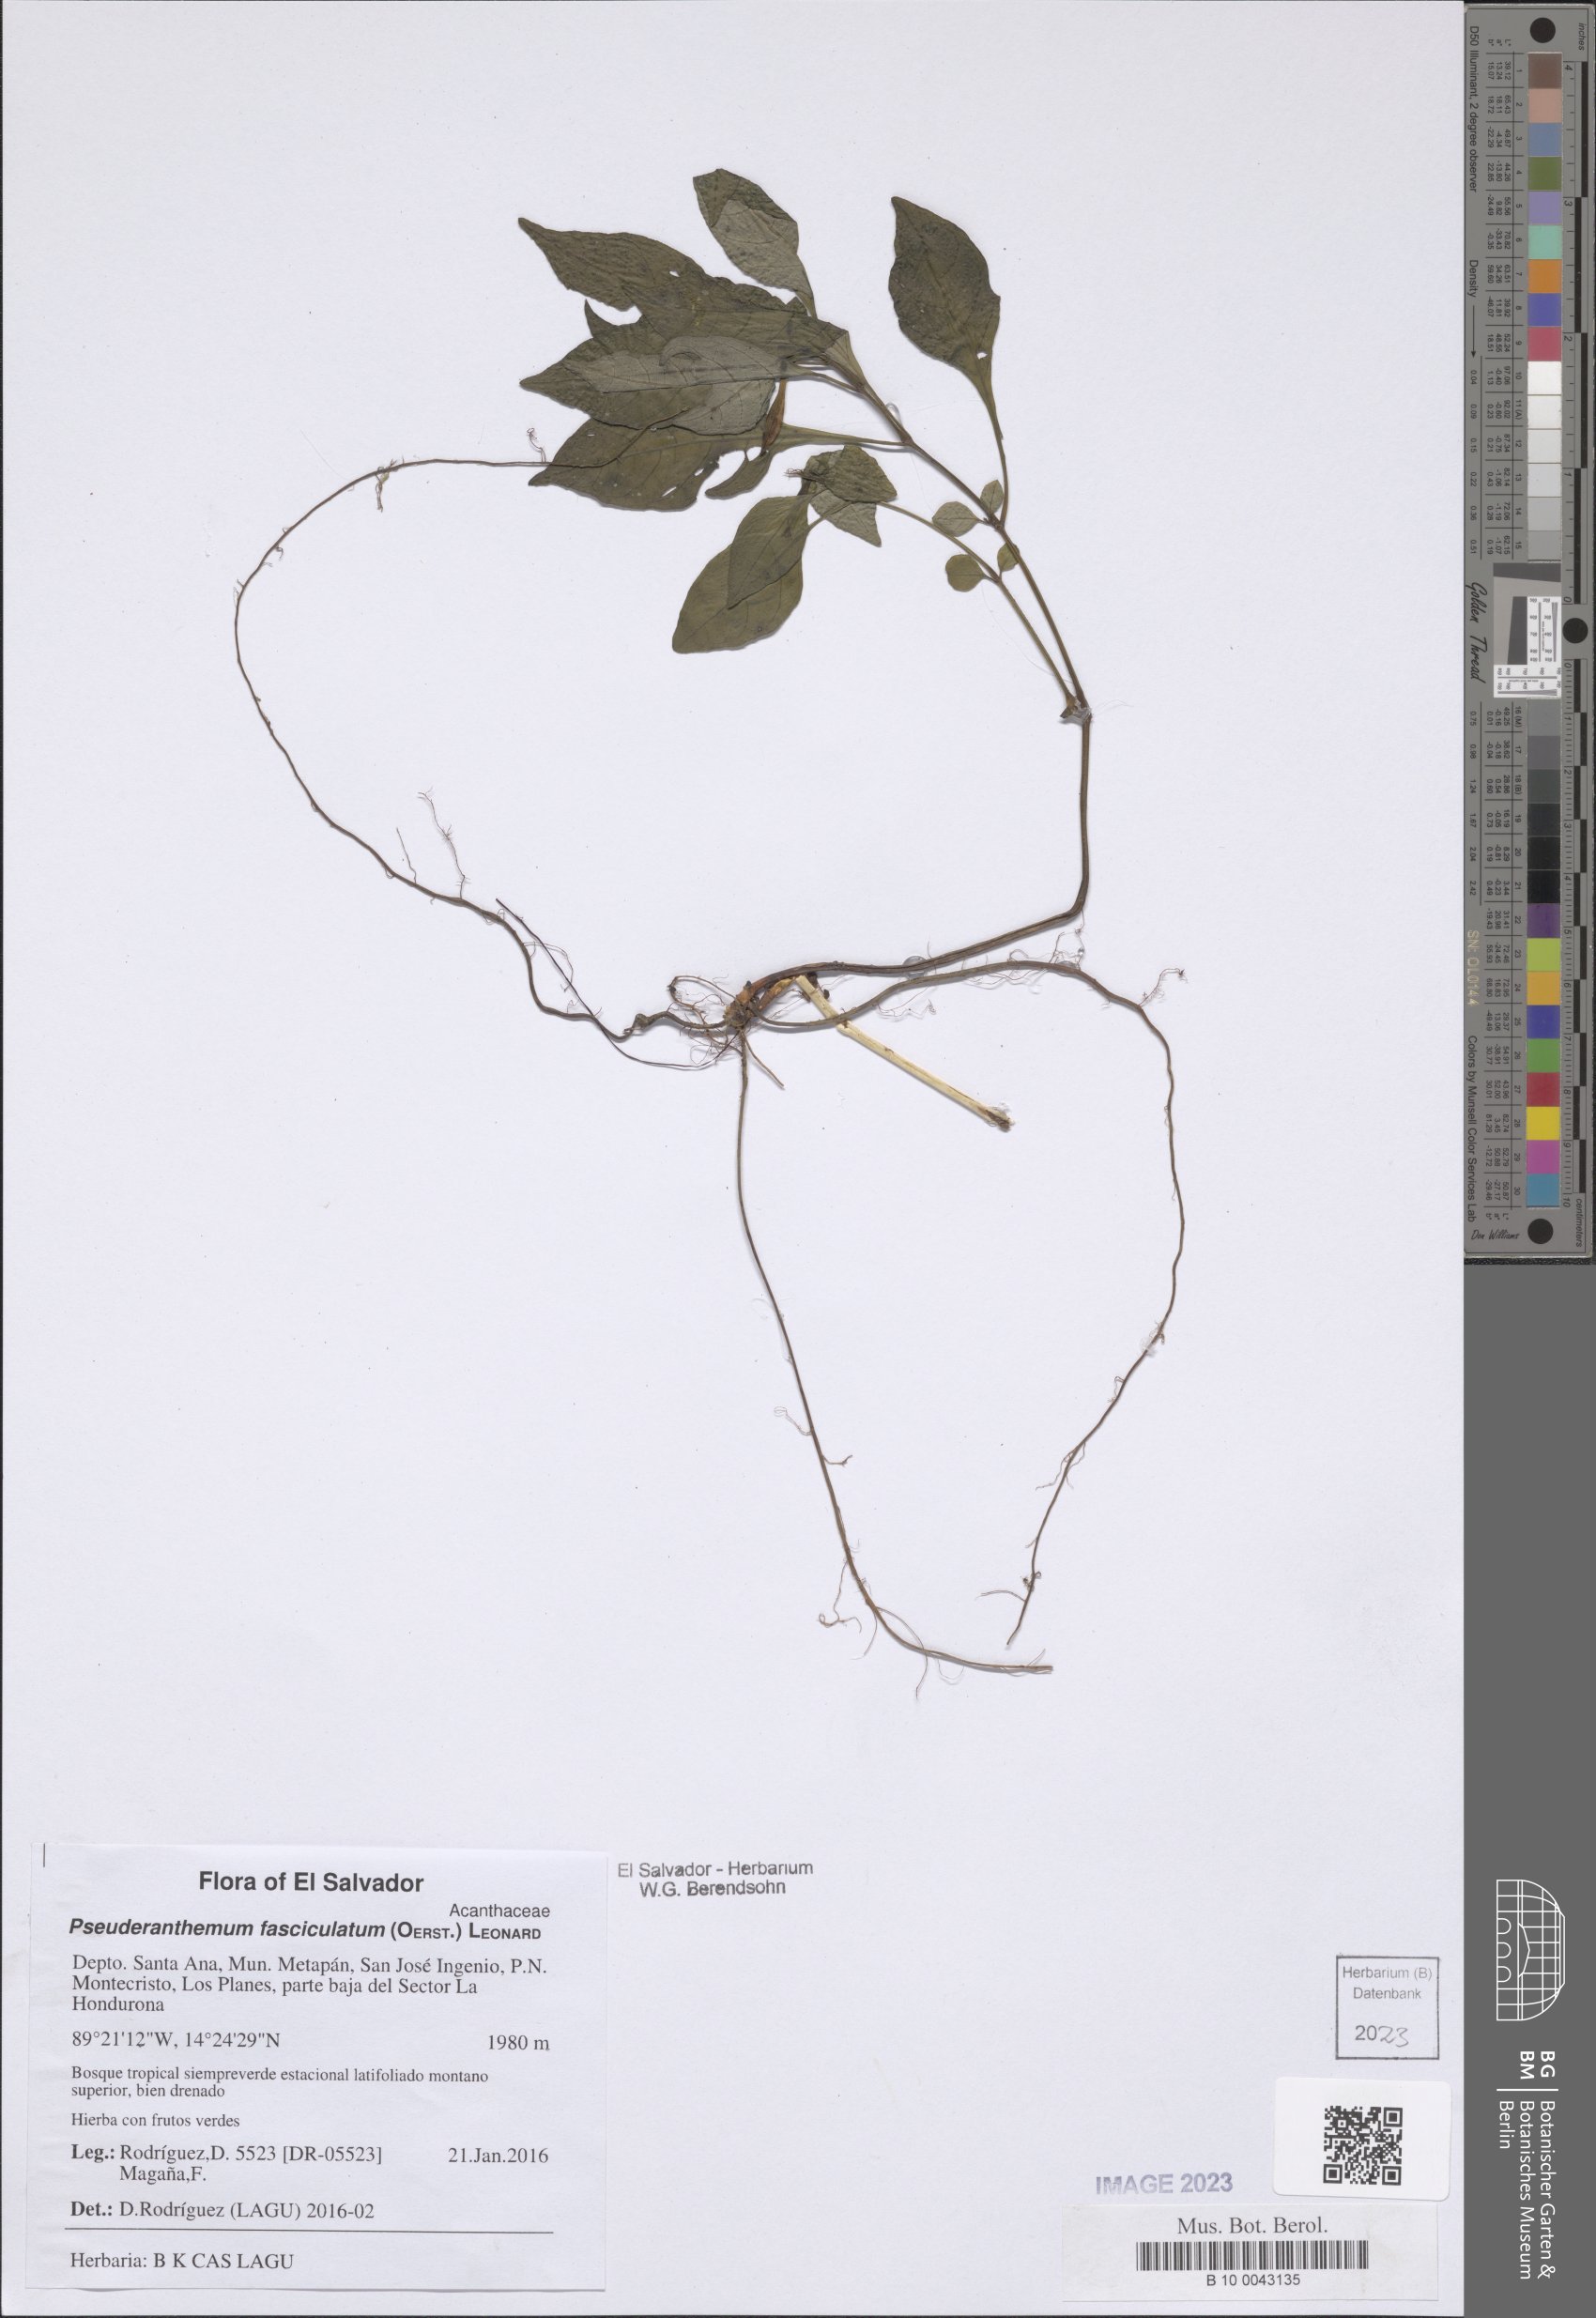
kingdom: Plantae
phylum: Tracheophyta
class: Magnoliopsida
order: Lamiales
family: Acanthaceae
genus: Pseuderanthemum
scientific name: Pseuderanthemum fasciculatum
